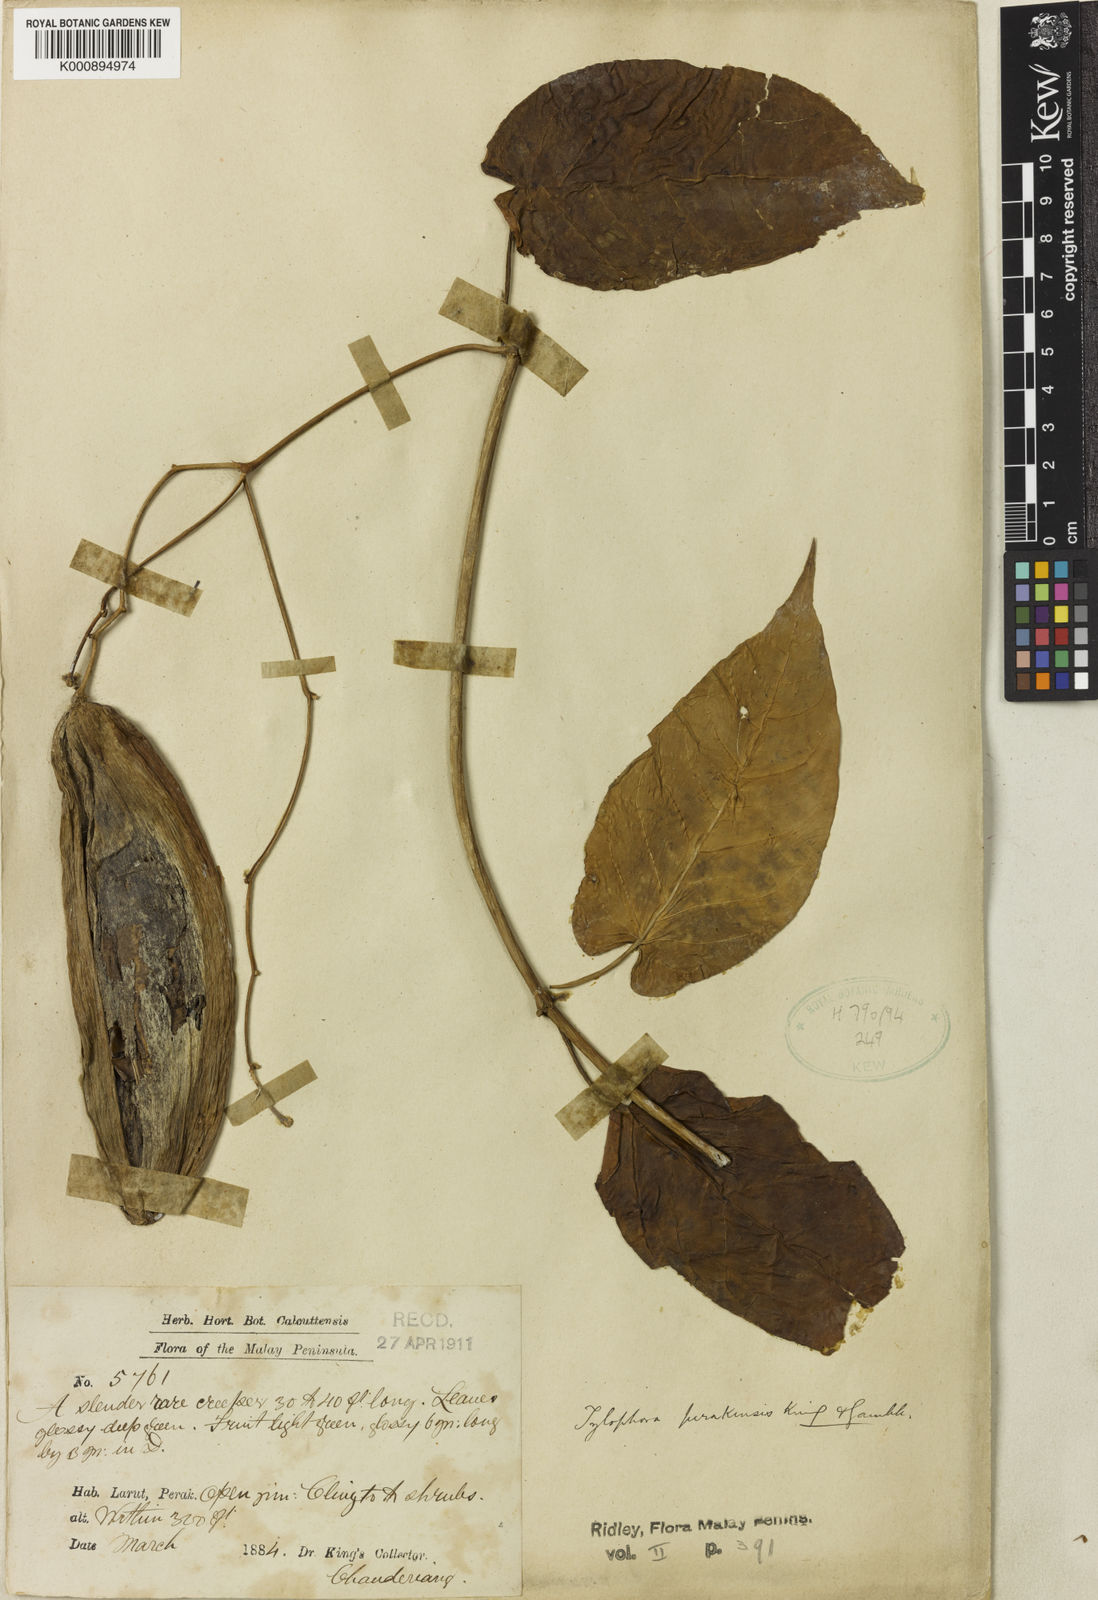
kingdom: Plantae
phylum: Tracheophyta
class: Magnoliopsida
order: Gentianales
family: Apocynaceae
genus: Vincetoxicum
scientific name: Vincetoxicum cissoides
